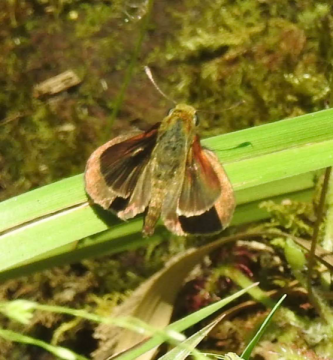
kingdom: Animalia
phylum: Arthropoda
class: Insecta
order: Lepidoptera
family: Hesperiidae
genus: Euphyes
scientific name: Euphyes vestris
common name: Dun Skipper
